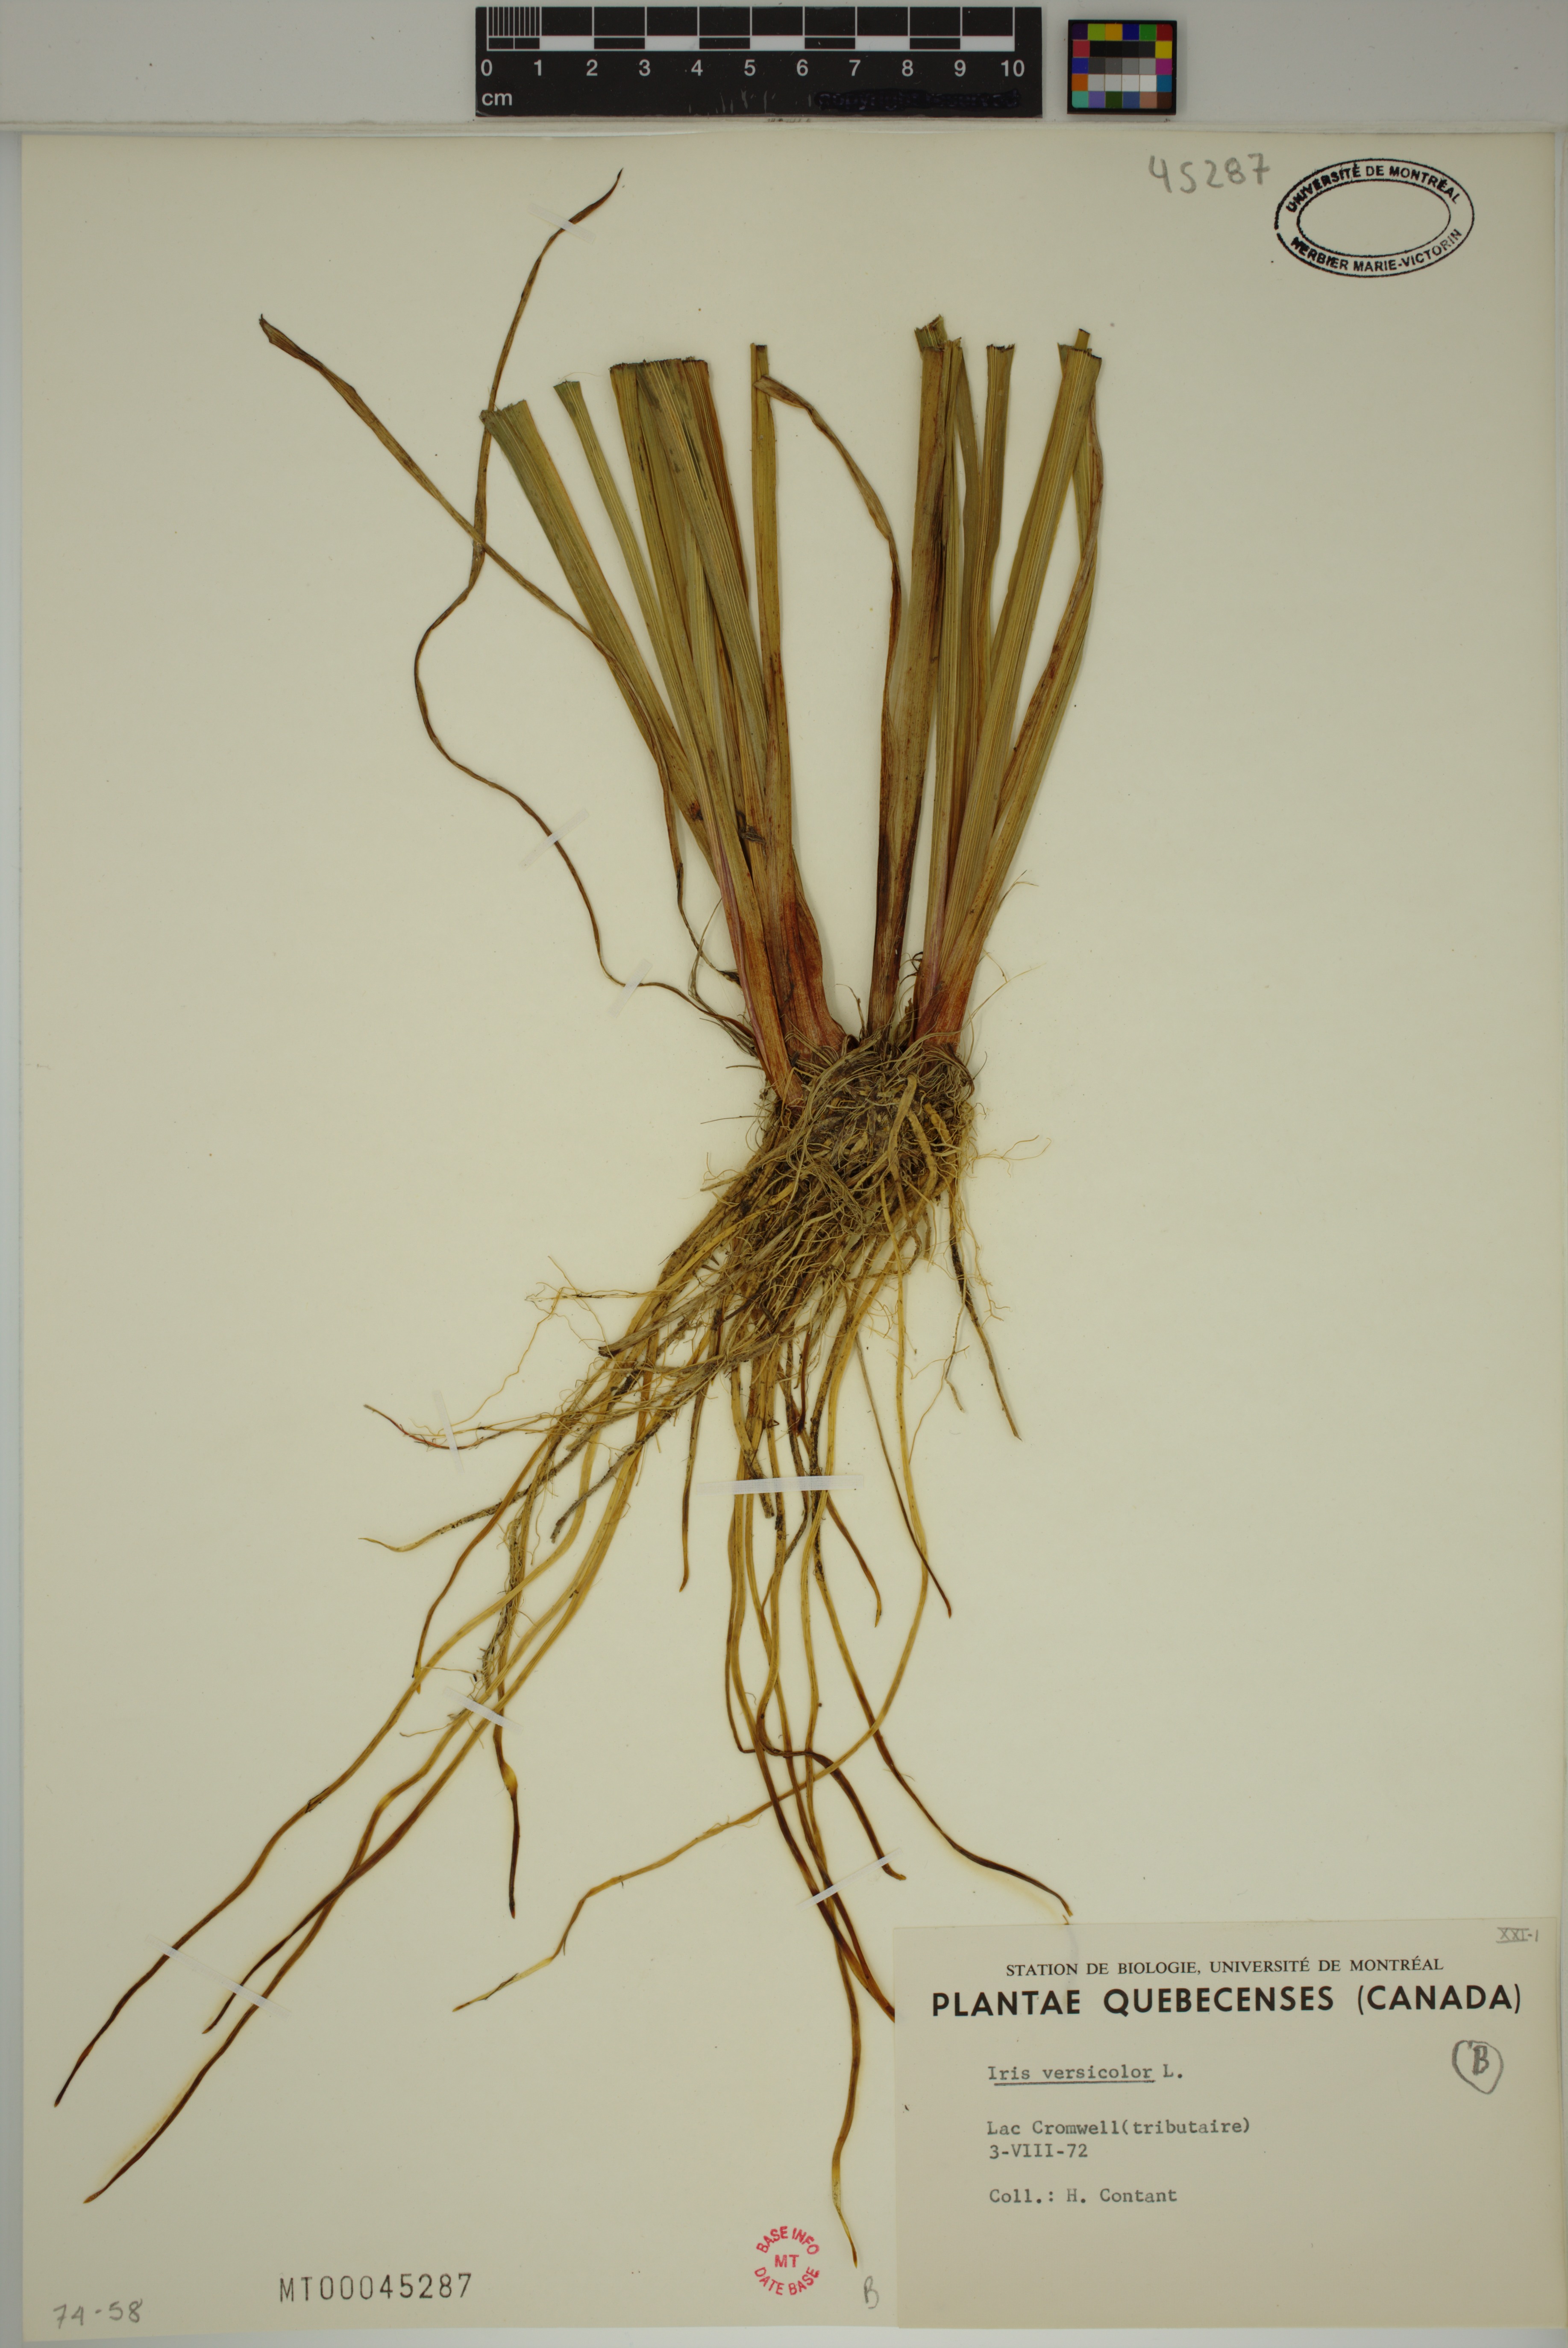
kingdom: Plantae
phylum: Tracheophyta
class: Liliopsida
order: Asparagales
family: Iridaceae
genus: Iris
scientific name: Iris versicolor
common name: Purple iris
